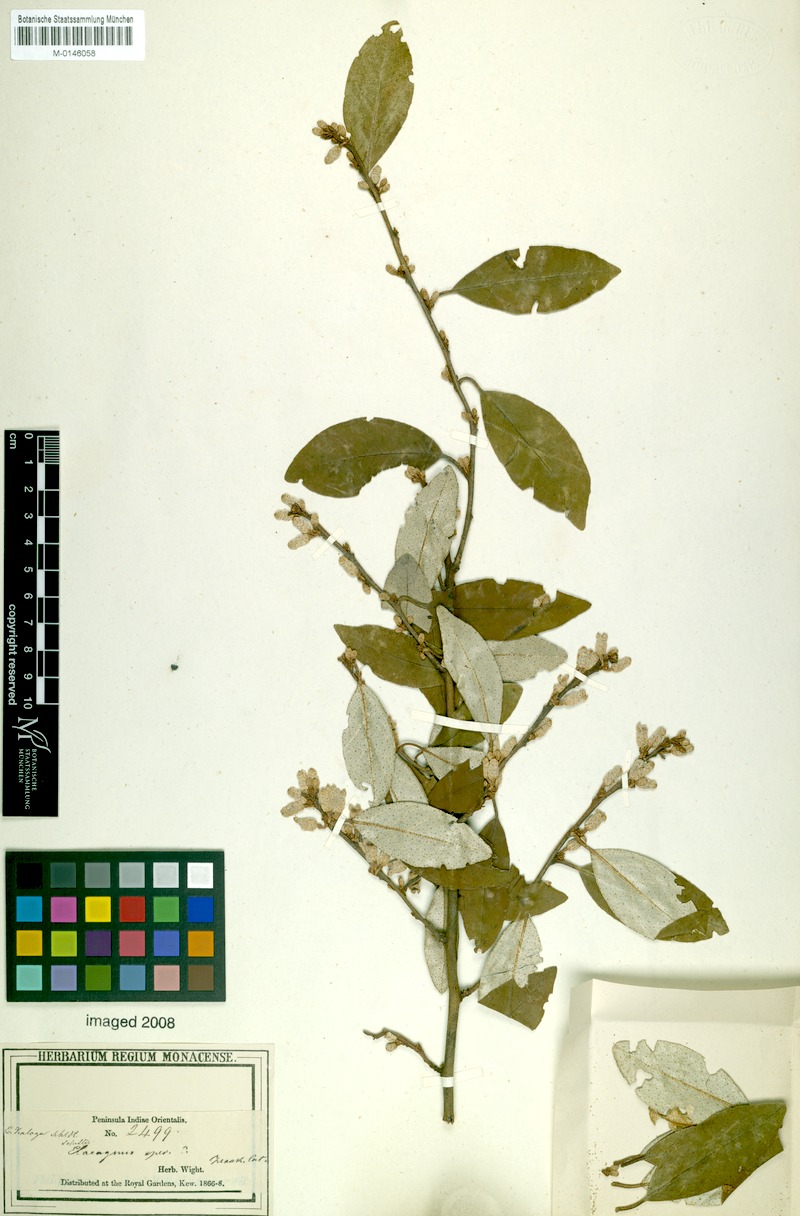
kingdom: Plantae
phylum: Tracheophyta
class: Magnoliopsida
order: Rosales
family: Elaeagnaceae
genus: Elaeagnus
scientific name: Elaeagnus conferta
